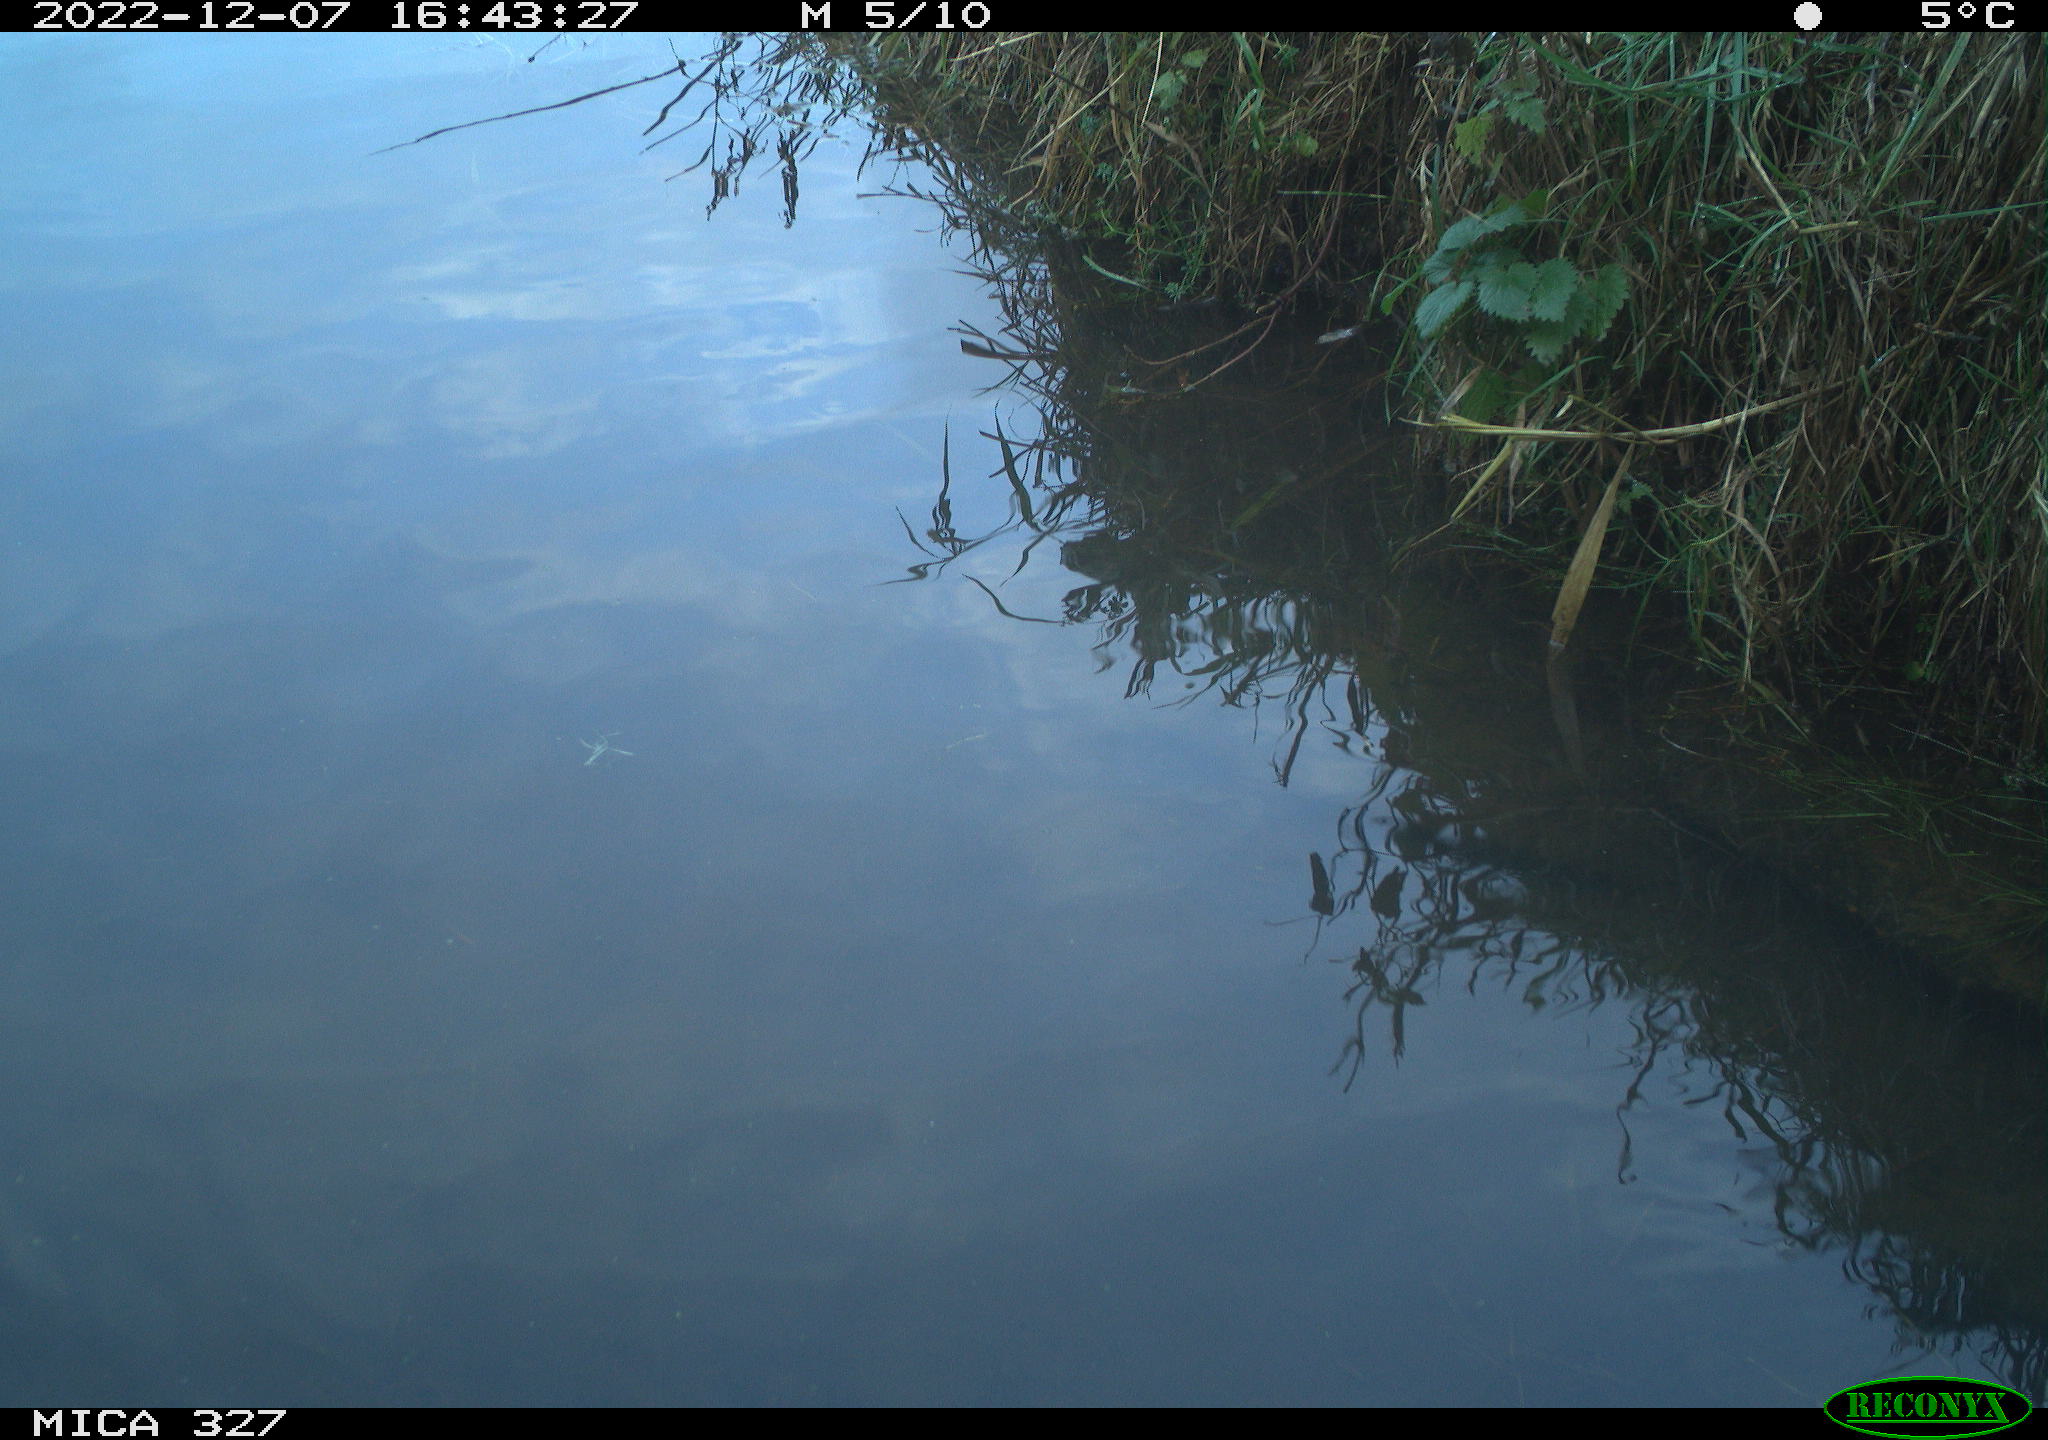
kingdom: Animalia
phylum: Chordata
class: Aves
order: Gruiformes
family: Rallidae
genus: Gallinula
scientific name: Gallinula chloropus
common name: Common moorhen
